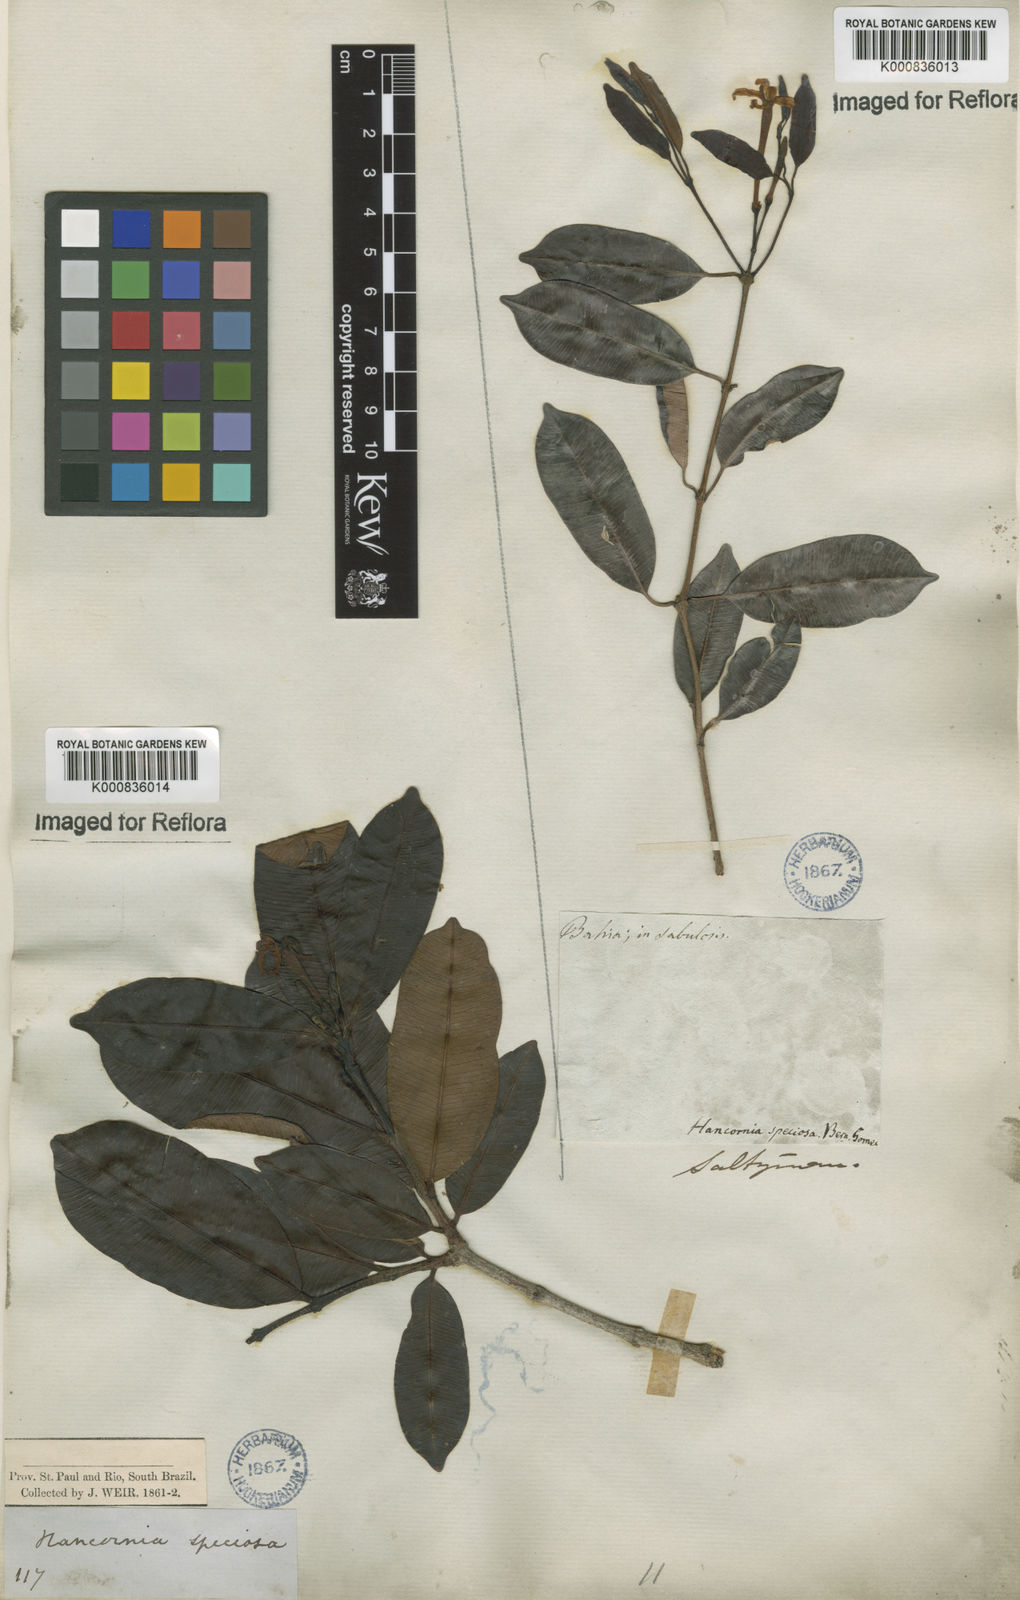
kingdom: Plantae
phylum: Tracheophyta
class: Magnoliopsida
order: Gentianales
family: Apocynaceae
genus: Hancornia
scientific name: Hancornia speciosa
